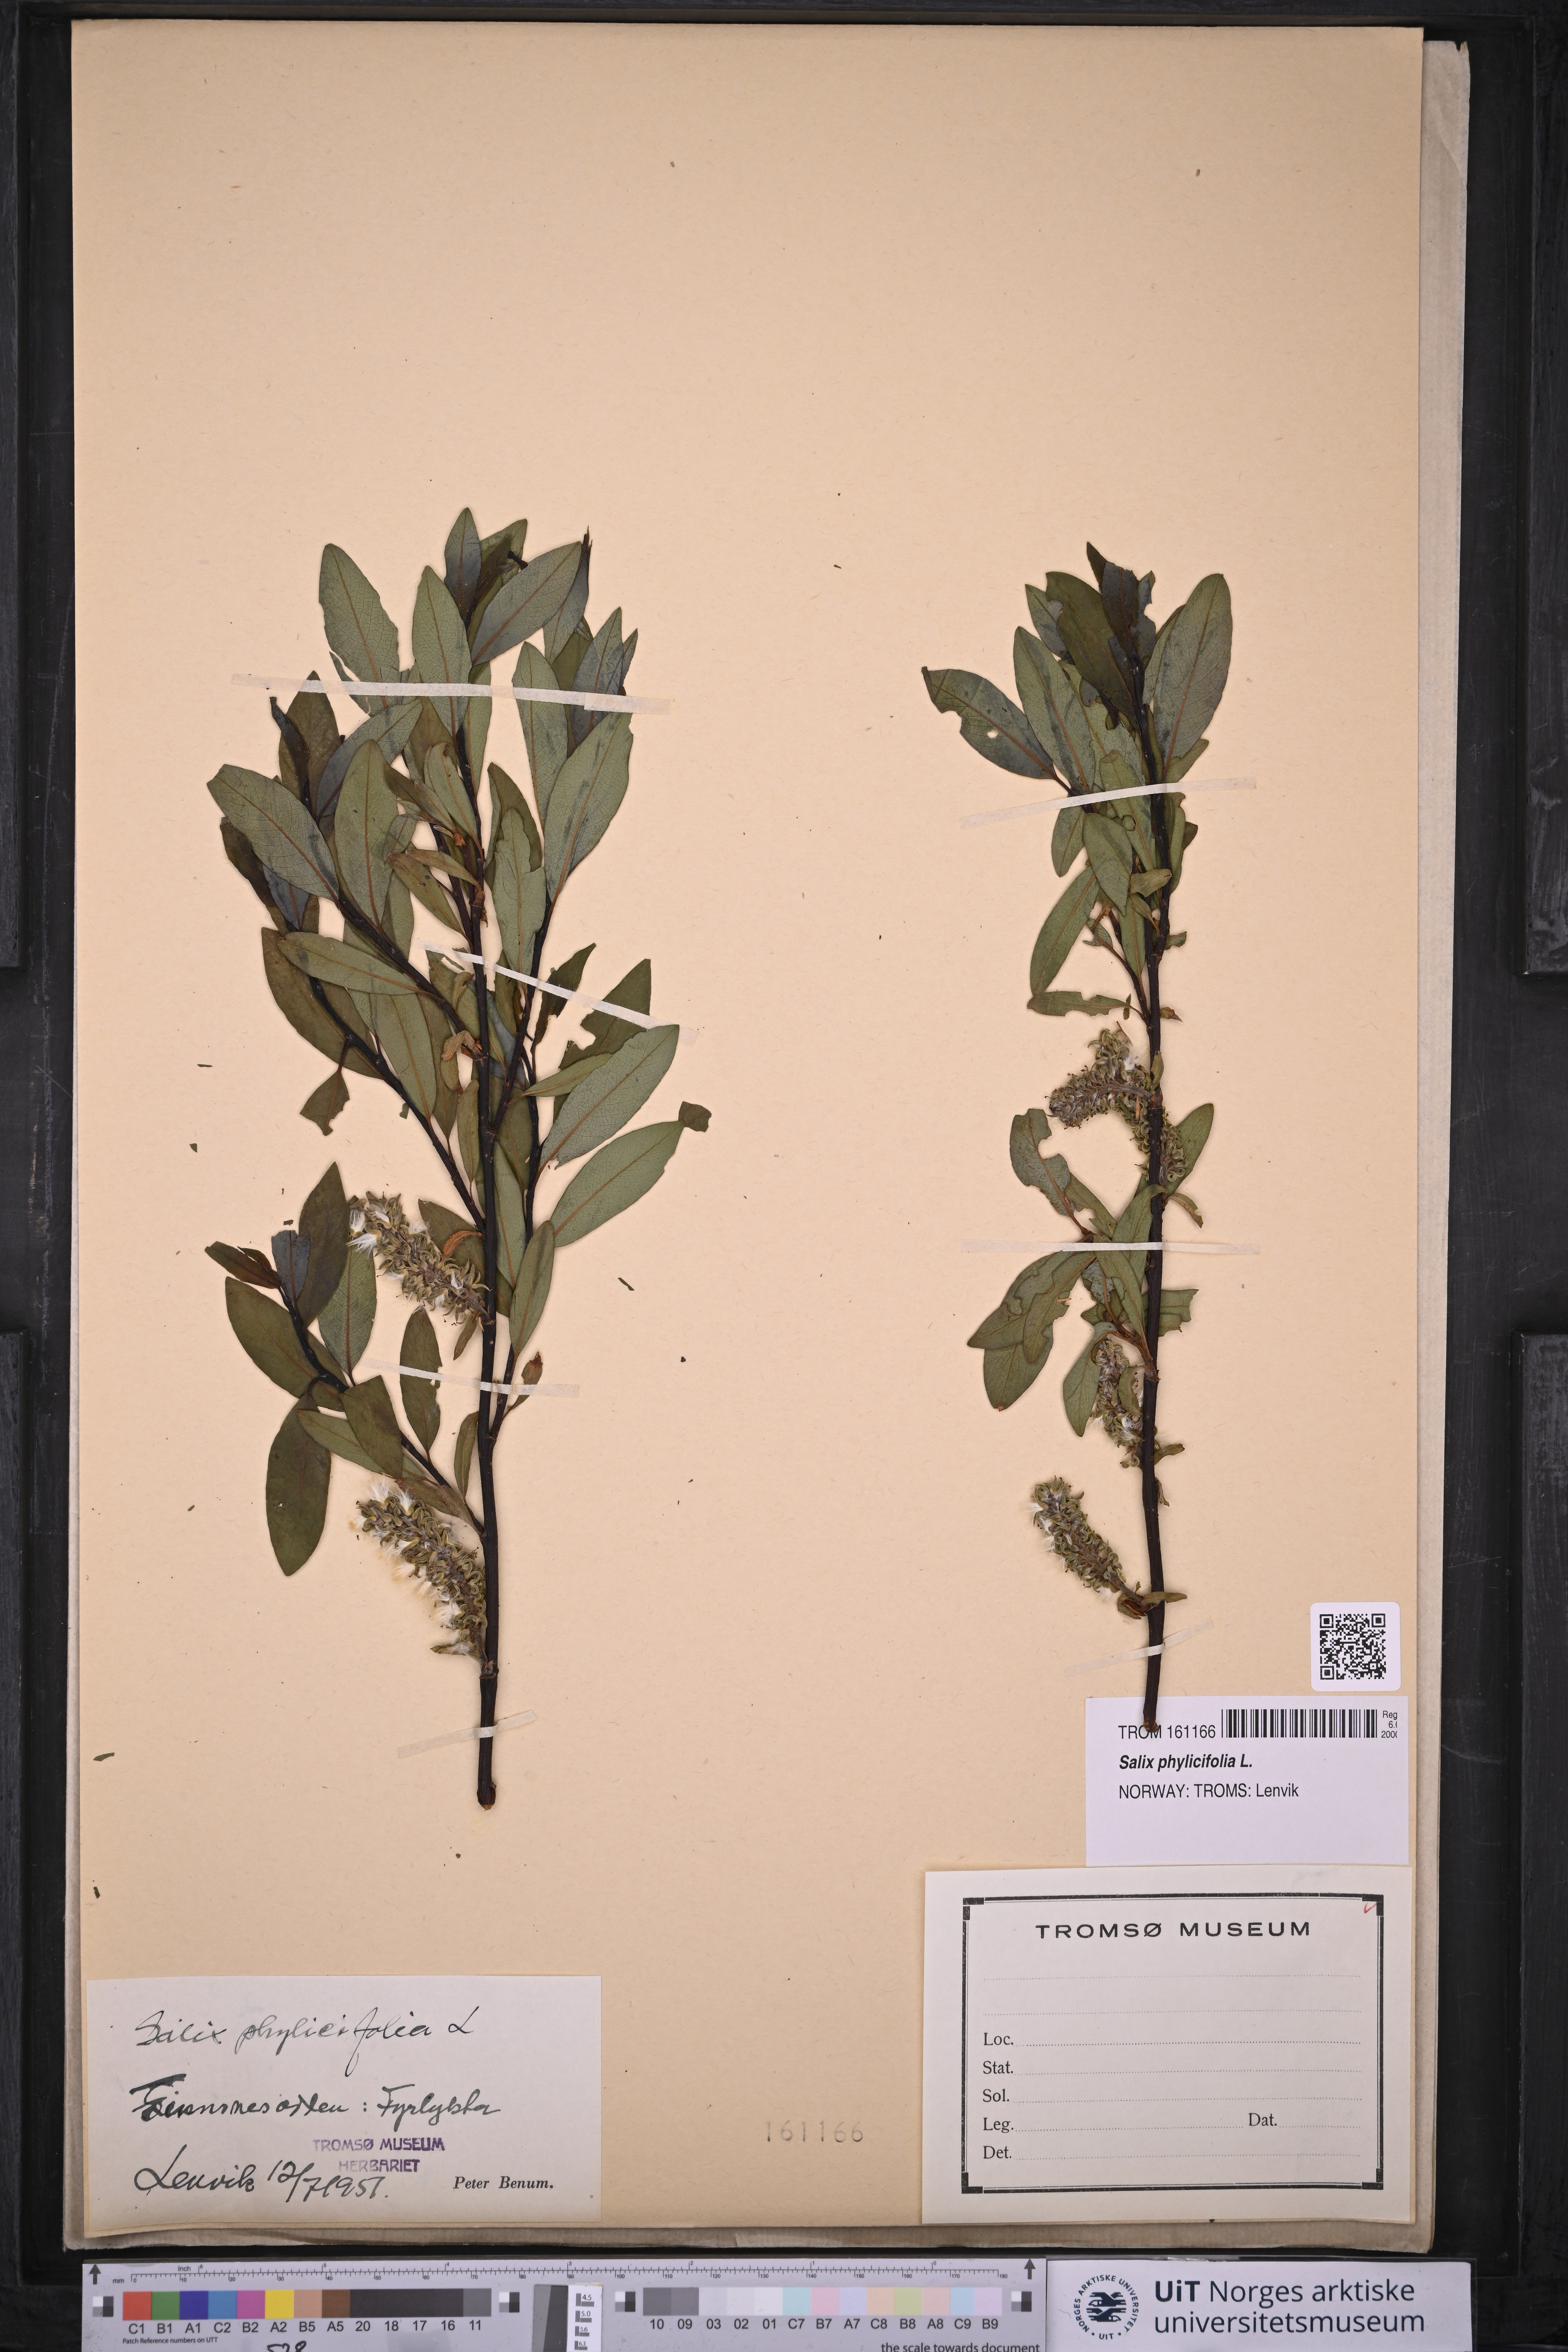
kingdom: Plantae
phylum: Tracheophyta
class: Magnoliopsida
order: Malpighiales
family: Salicaceae
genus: Salix
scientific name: Salix phylicifolia
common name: Tea-leaved willow
